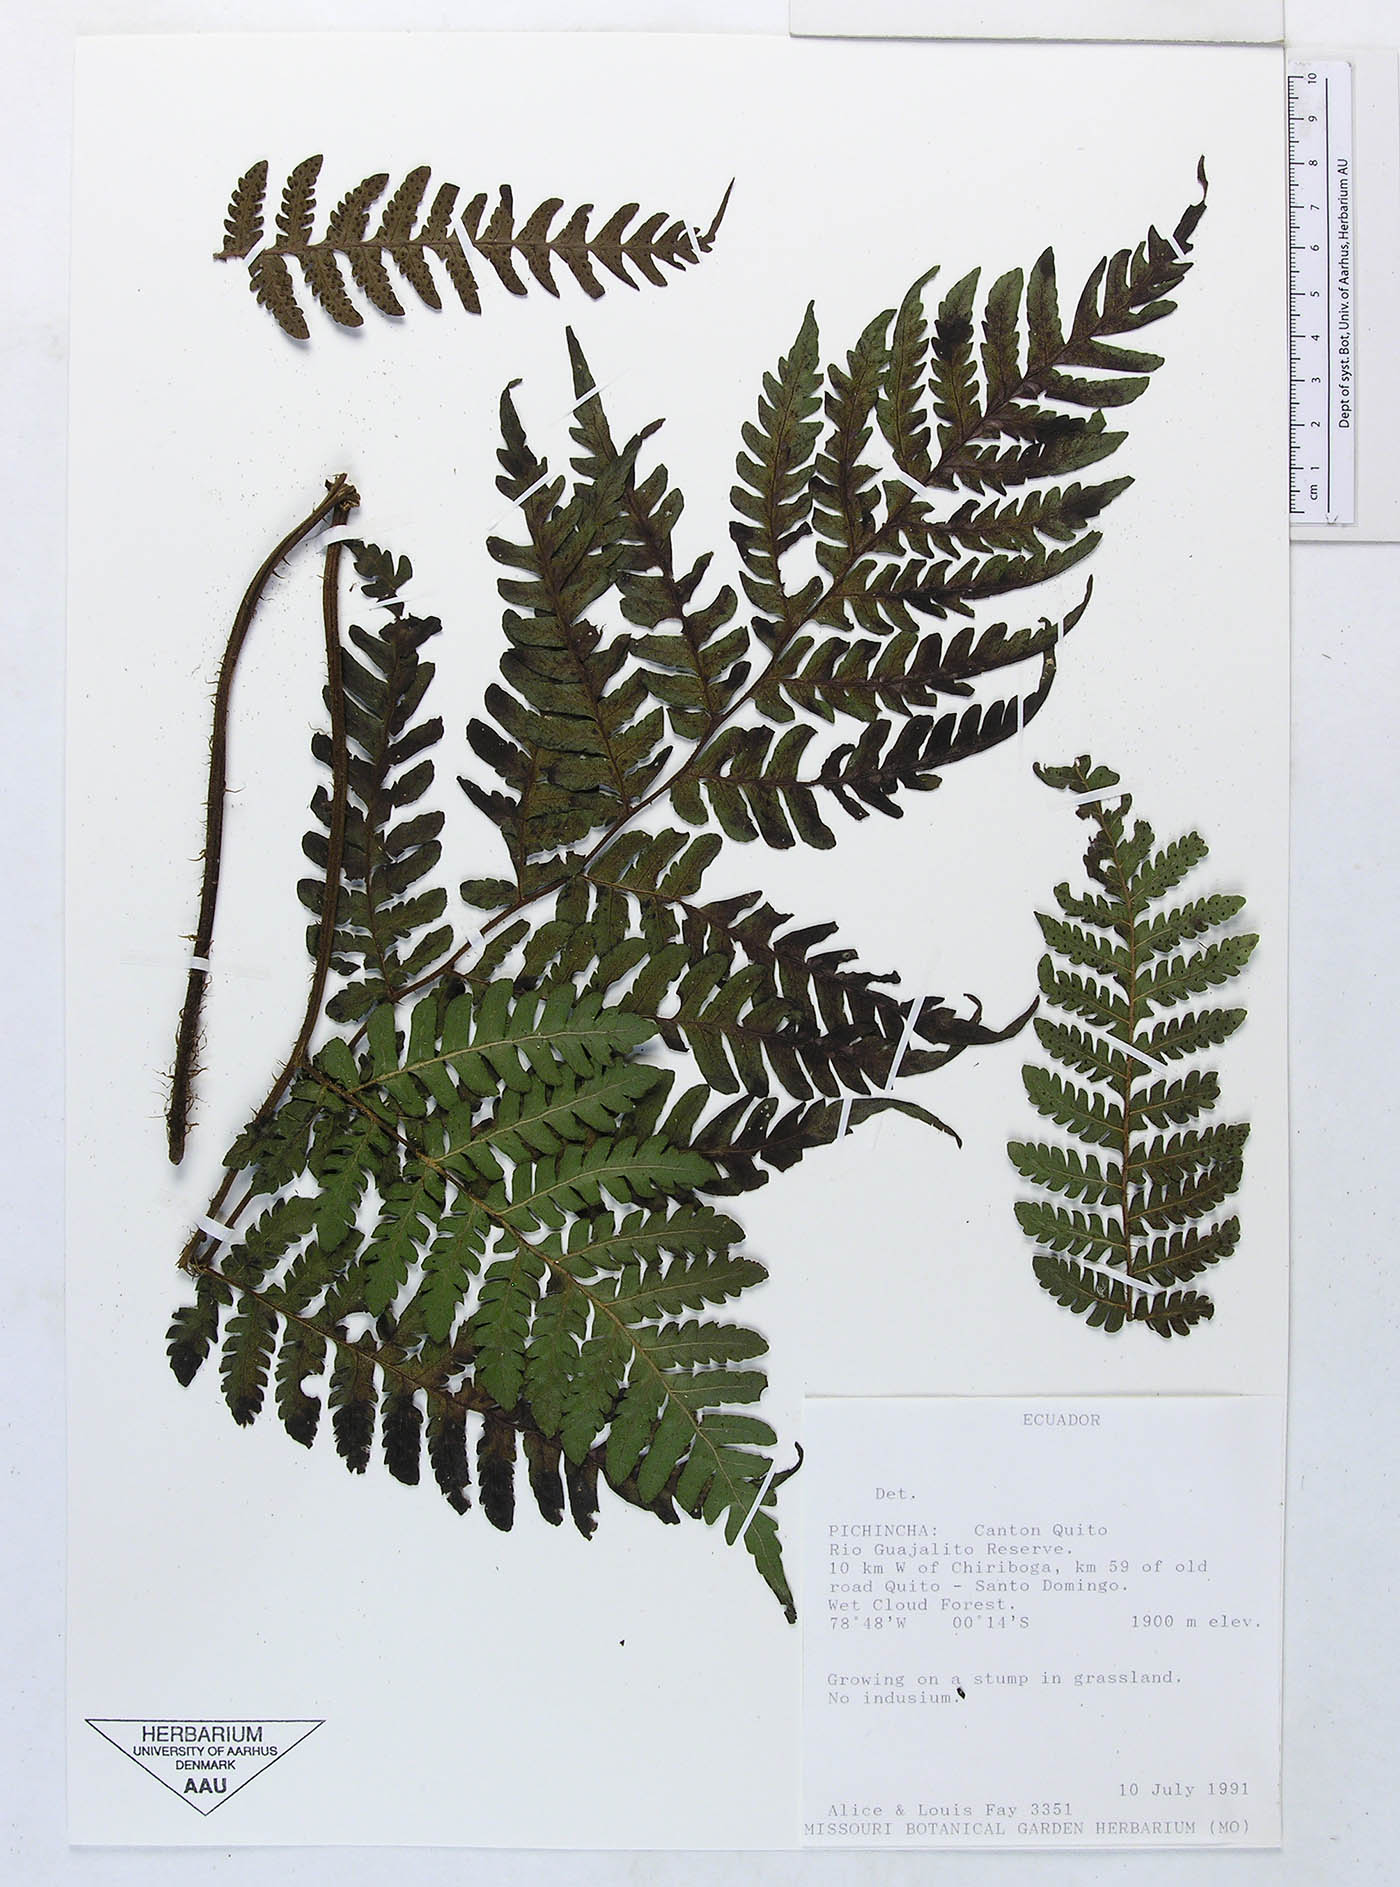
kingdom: Plantae
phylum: Tracheophyta
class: Polypodiopsida
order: Polypodiales
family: Dryopteridaceae
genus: Megalastrum
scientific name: Megalastrum vastum
